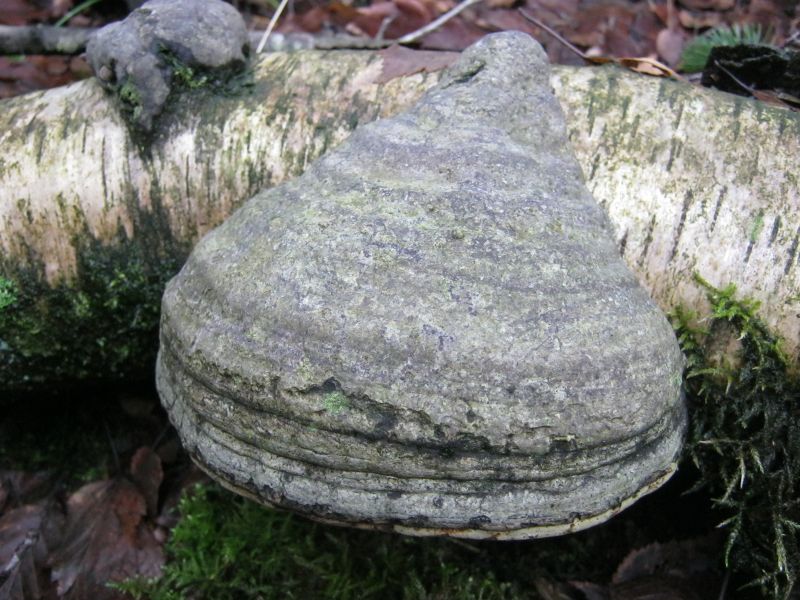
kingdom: Fungi
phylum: Basidiomycota
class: Agaricomycetes
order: Polyporales
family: Polyporaceae
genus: Fomes
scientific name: Fomes fomentarius
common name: tøndersvamp
